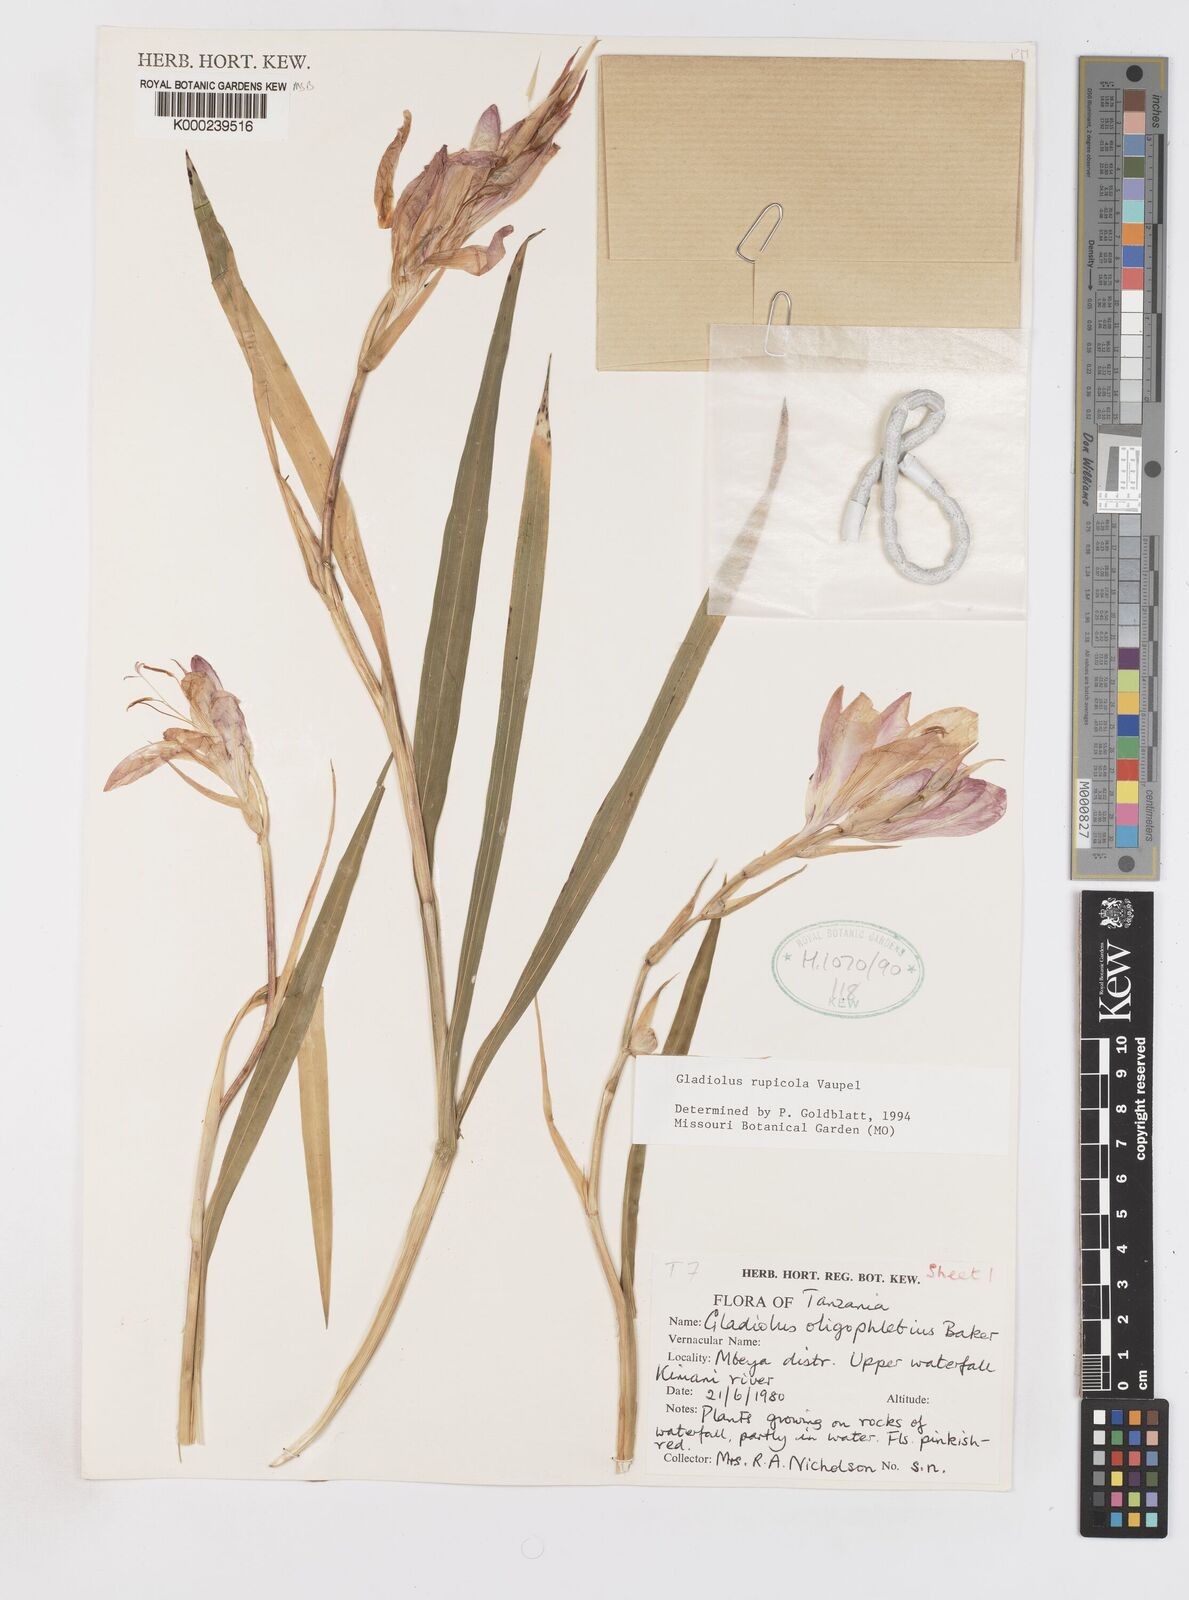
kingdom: Plantae
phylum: Tracheophyta
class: Liliopsida
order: Asparagales
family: Iridaceae
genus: Gladiolus
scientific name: Gladiolus rupicola
